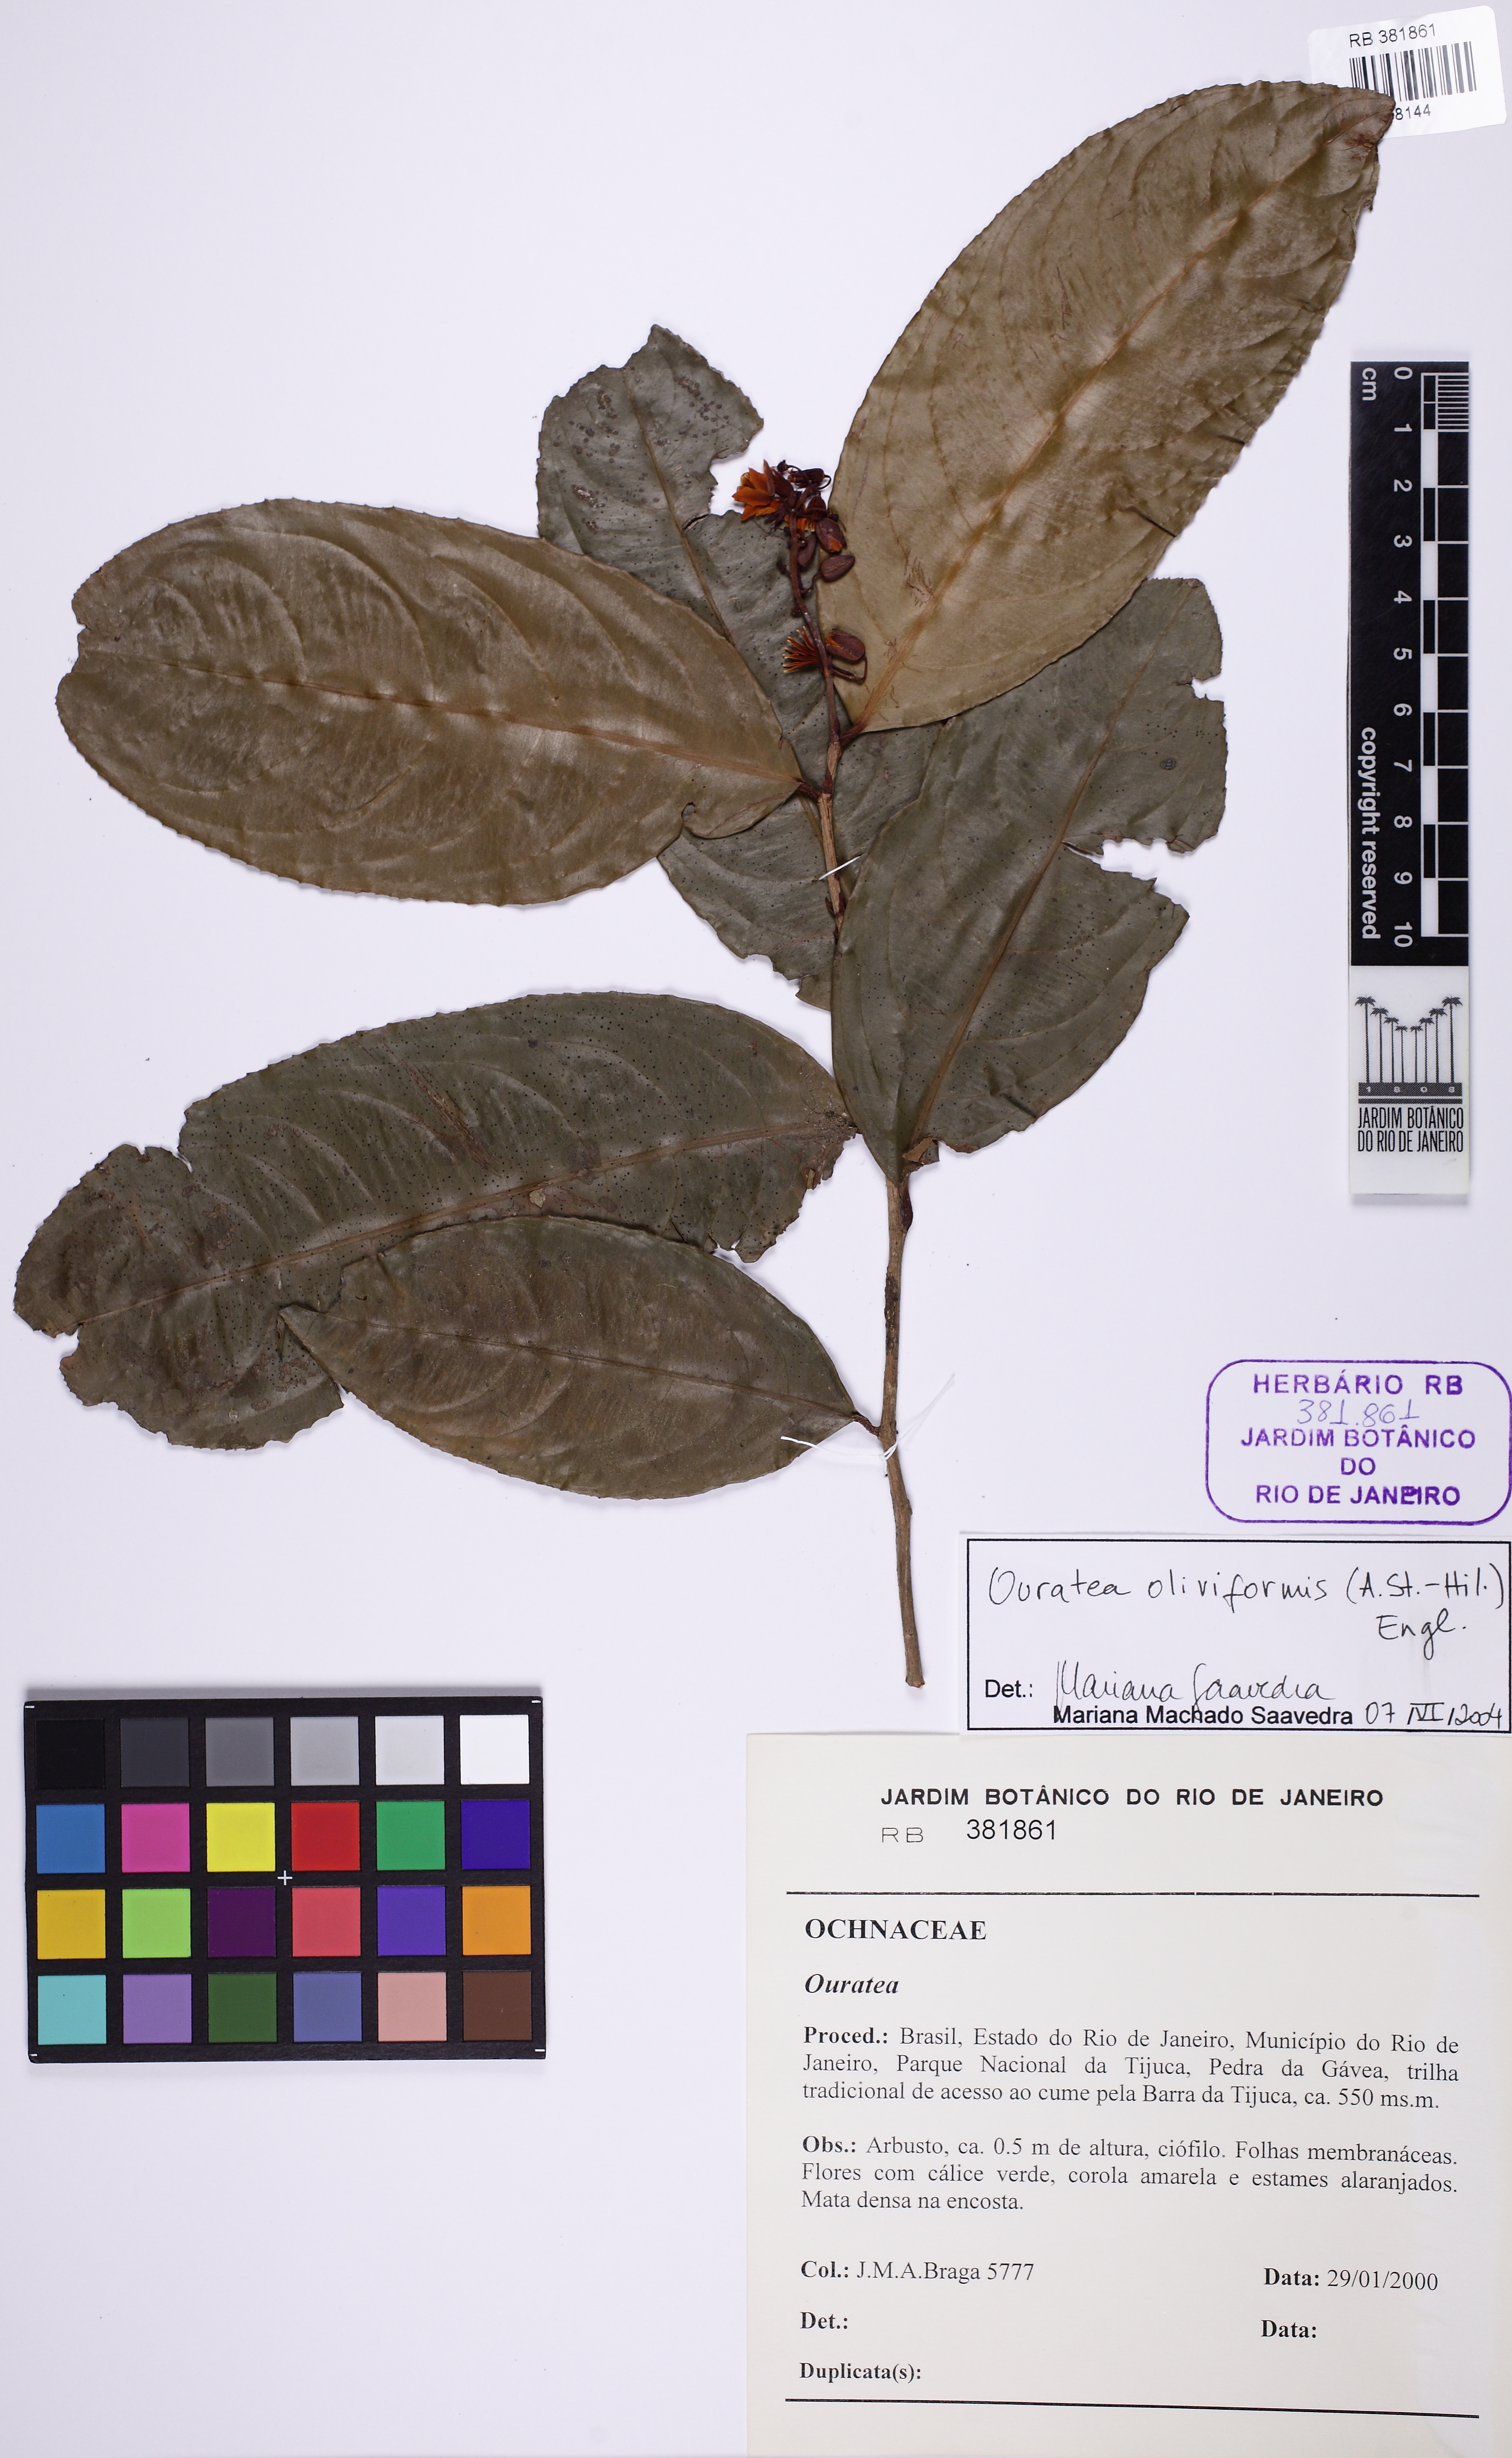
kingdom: Plantae
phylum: Tracheophyta
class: Magnoliopsida
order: Malpighiales
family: Ochnaceae
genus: Ouratea
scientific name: Ouratea oliviformis
